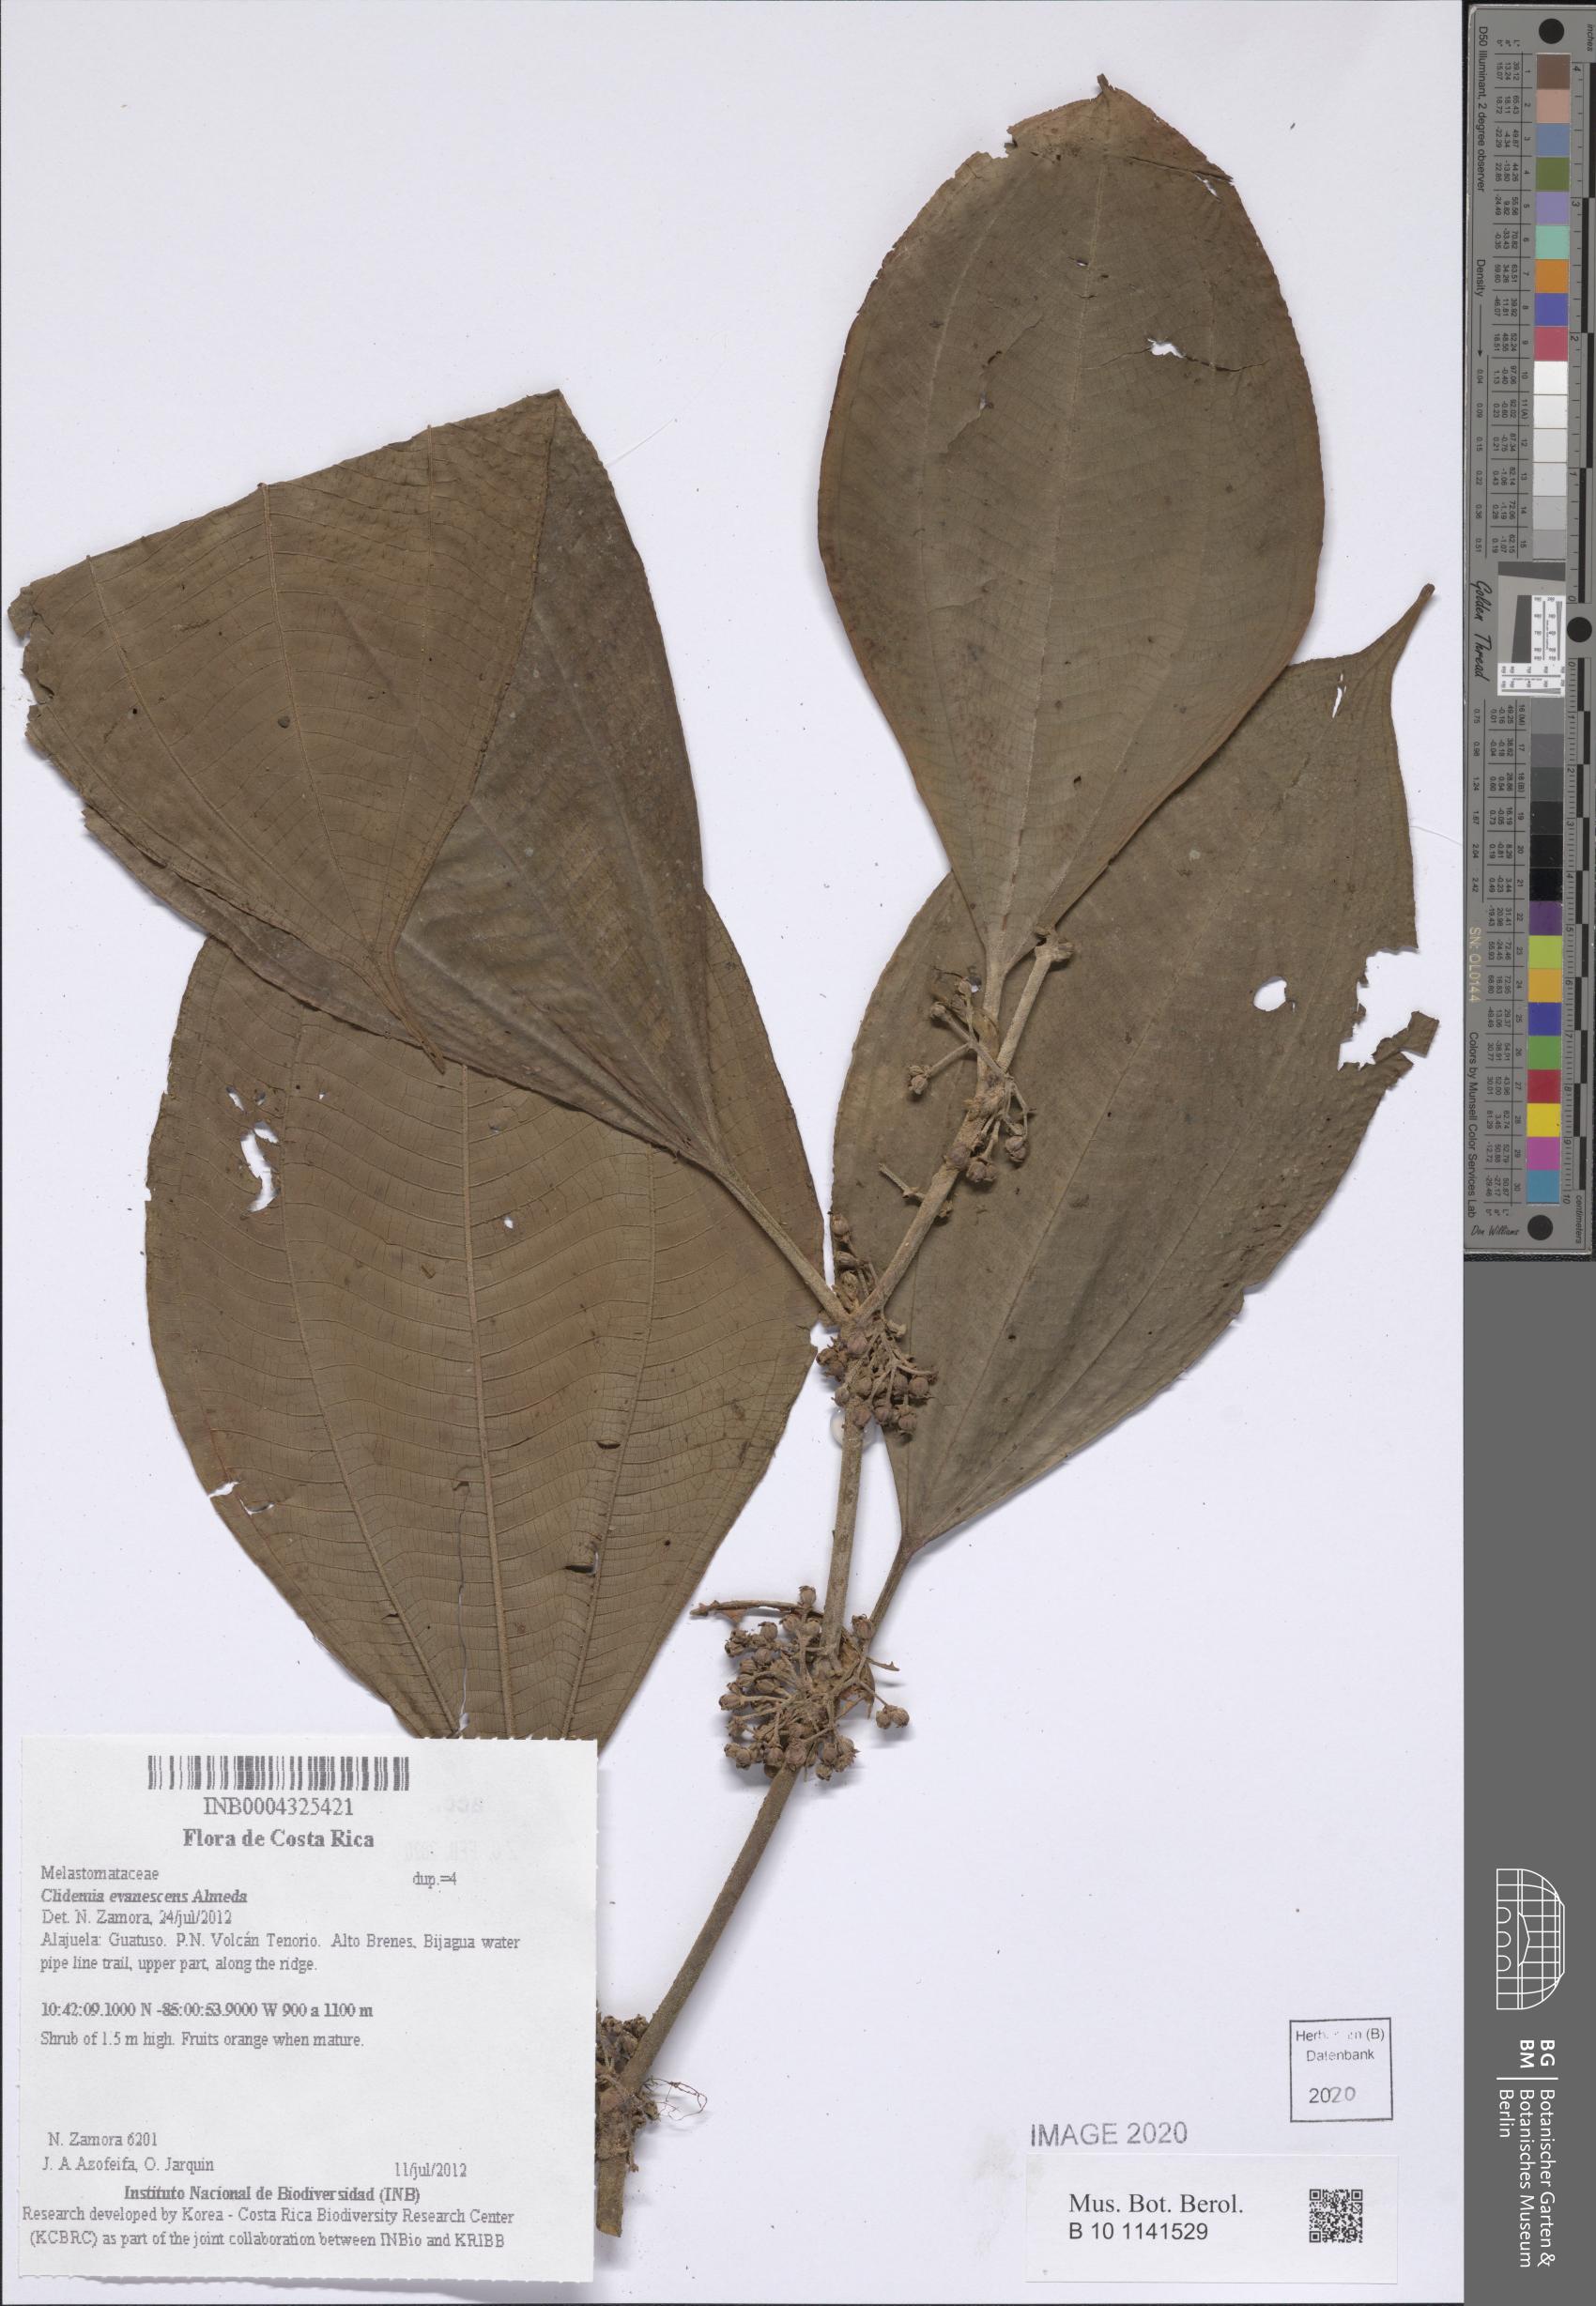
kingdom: Plantae
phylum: Tracheophyta
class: Magnoliopsida
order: Myrtales
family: Melastomataceae
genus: Miconia
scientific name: Miconia evanescens
